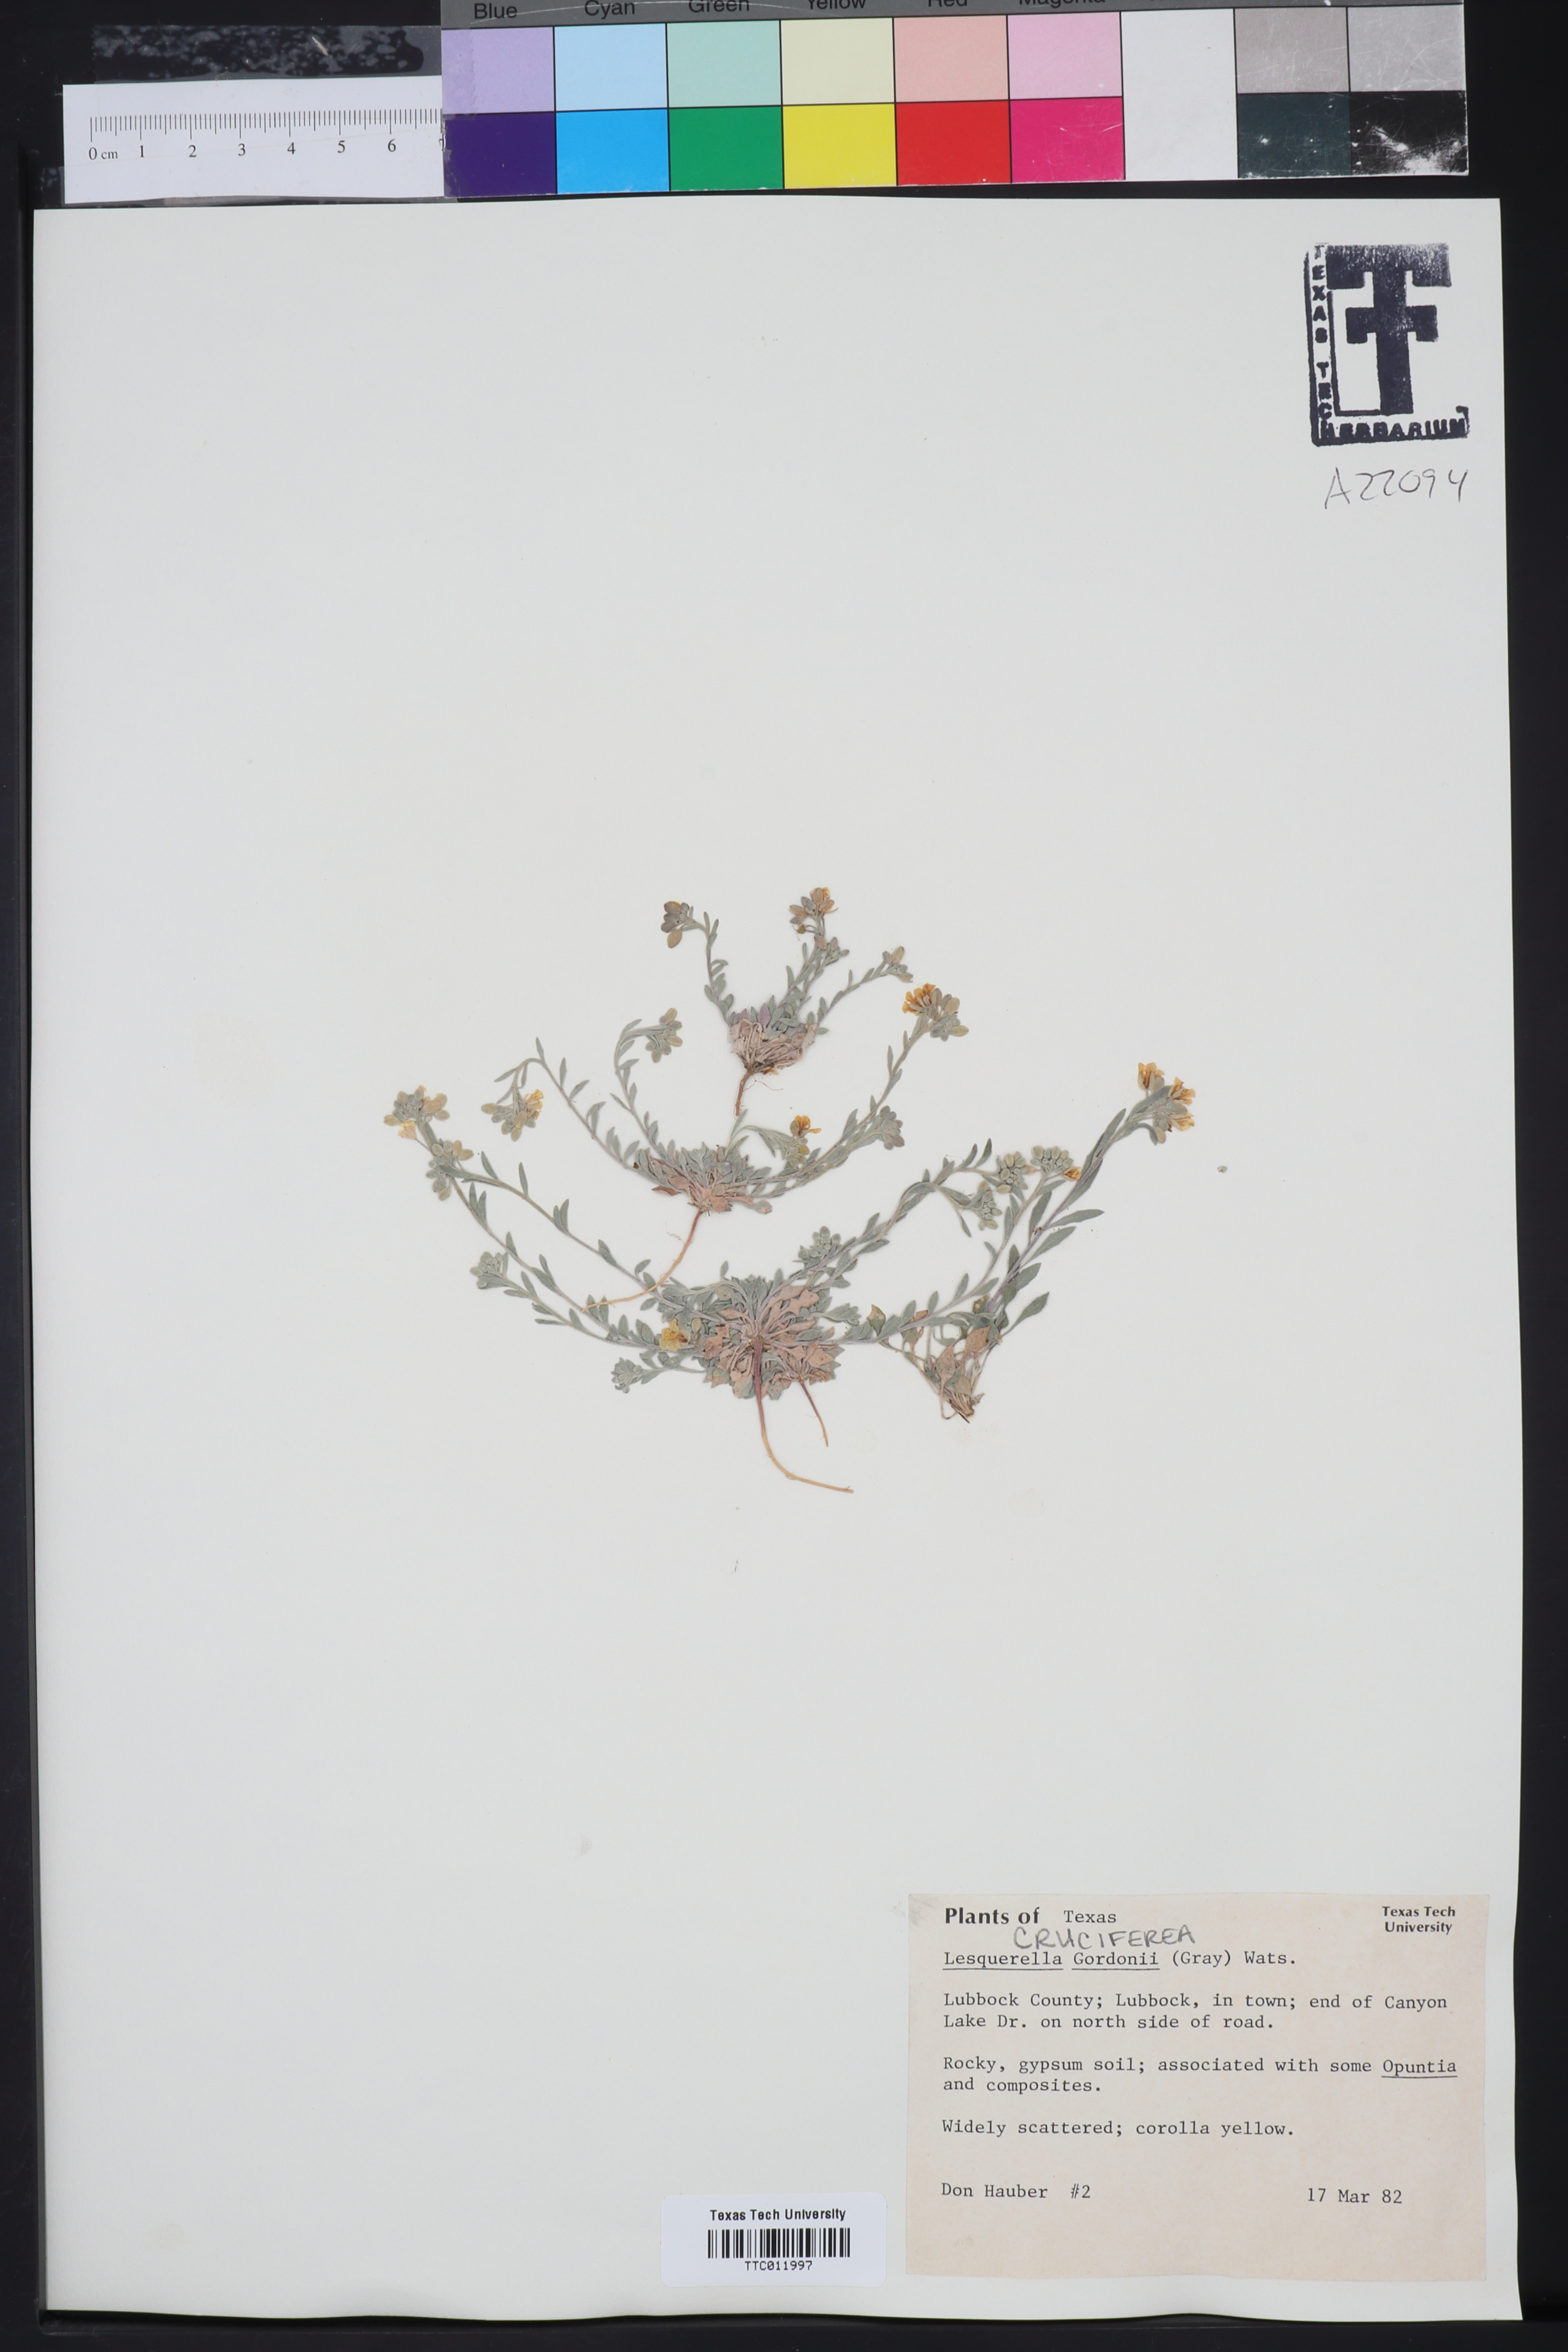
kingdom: Plantae
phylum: Tracheophyta
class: Magnoliopsida
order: Brassicales
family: Brassicaceae
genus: Physaria
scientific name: Physaria gordonii
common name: Gordon's bladderpod
